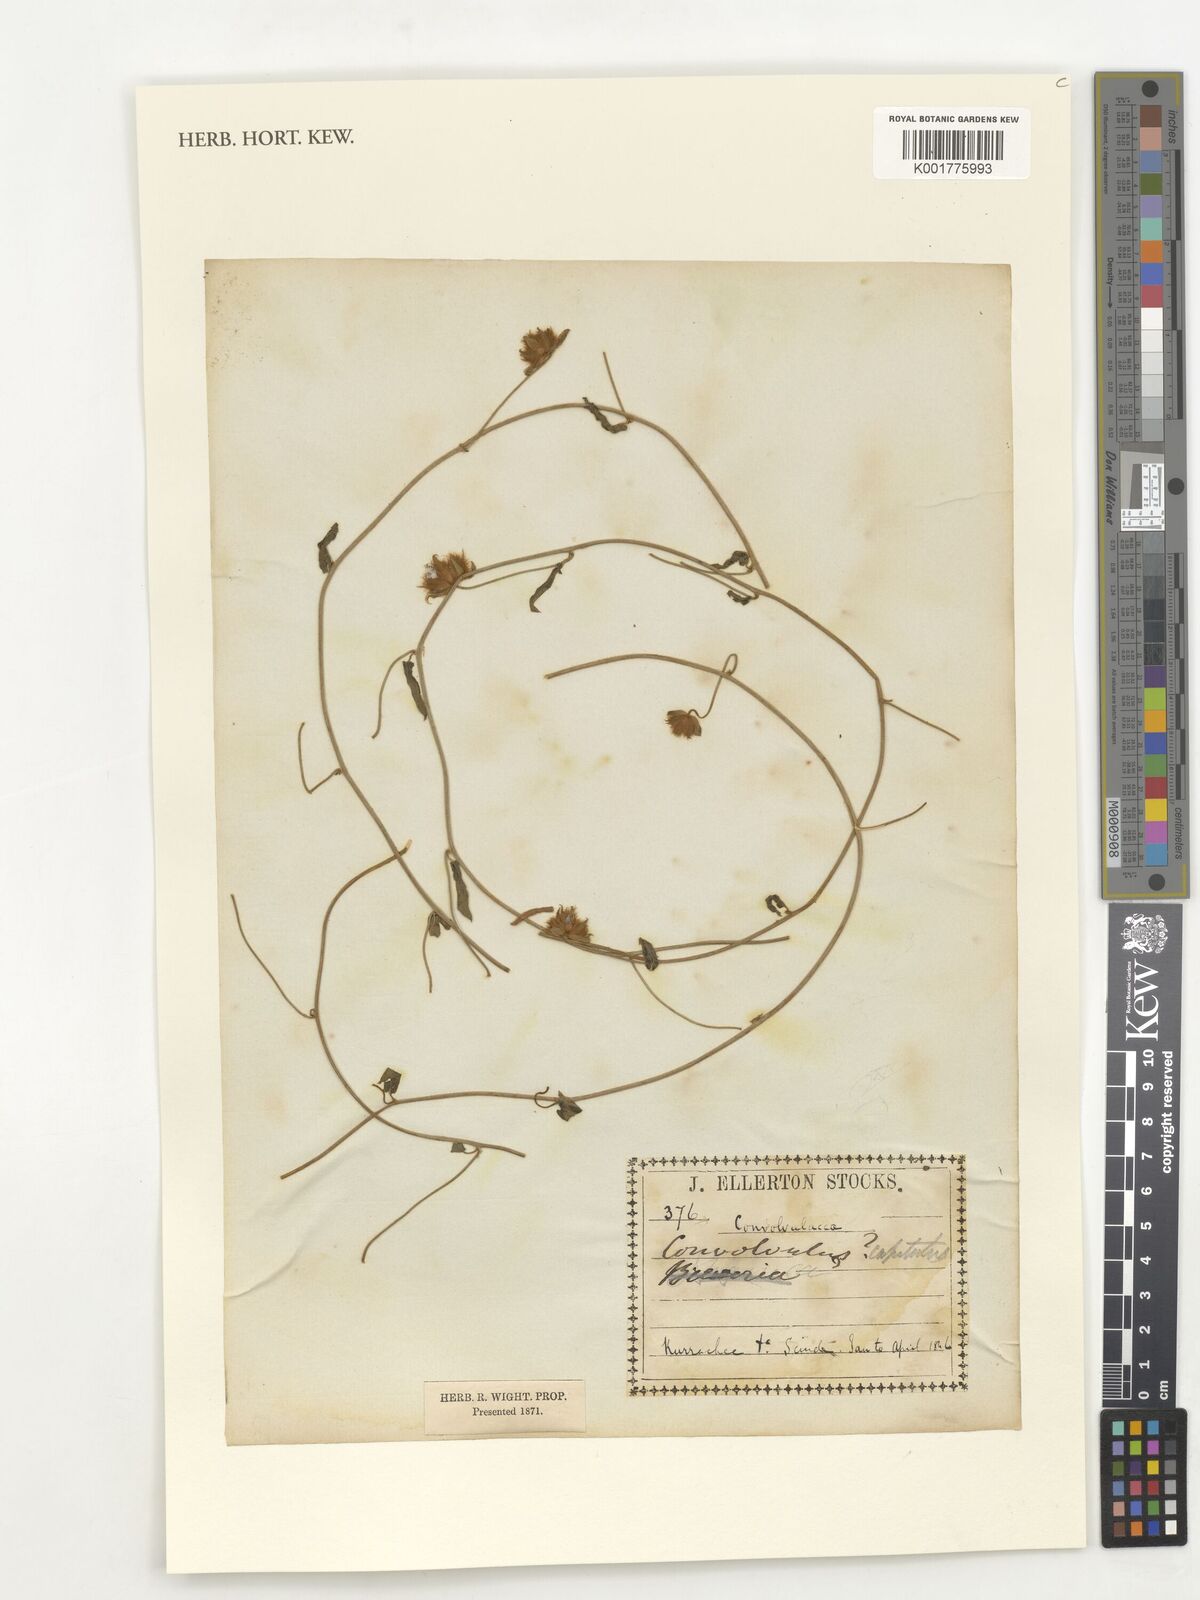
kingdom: Plantae
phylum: Tracheophyta
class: Magnoliopsida
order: Solanales
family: Convolvulaceae
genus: Convolvulus
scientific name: Convolvulus glomeratus
